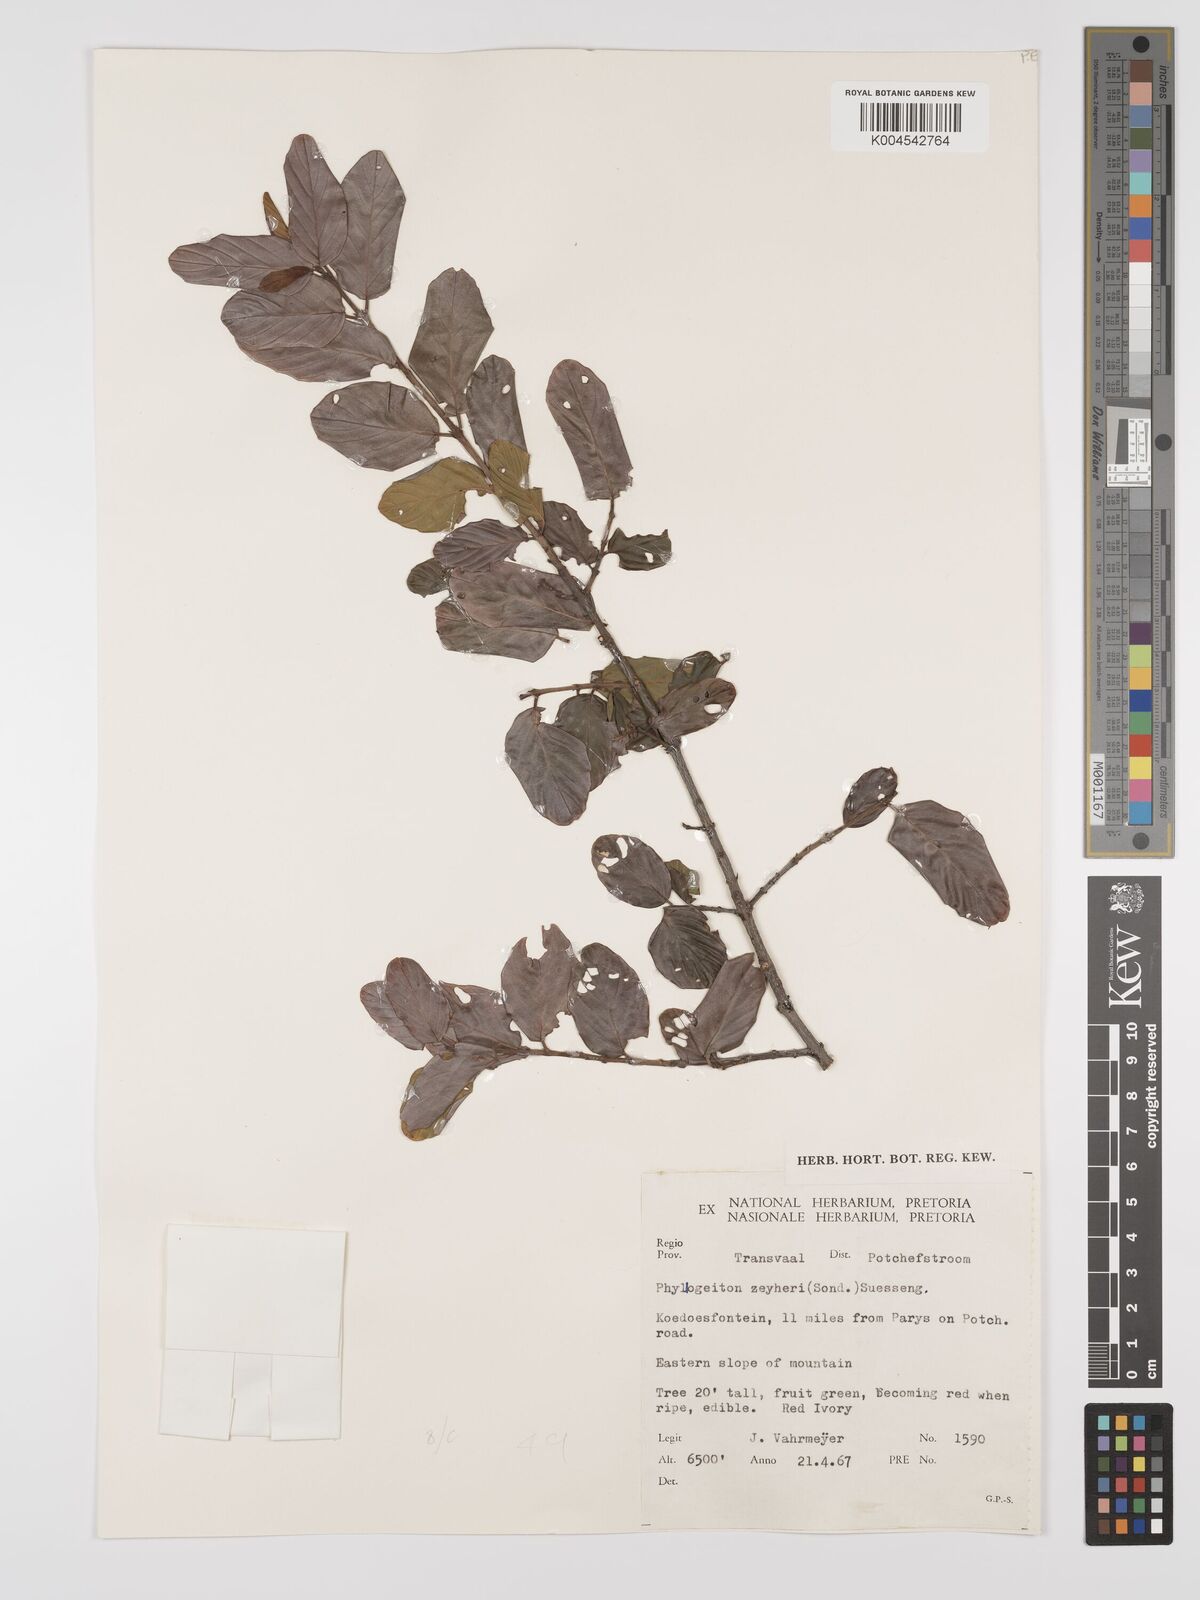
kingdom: Plantae
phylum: Tracheophyta
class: Magnoliopsida
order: Rosales
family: Rhamnaceae
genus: Phyllogeiton
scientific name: Phyllogeiton zeyheri
